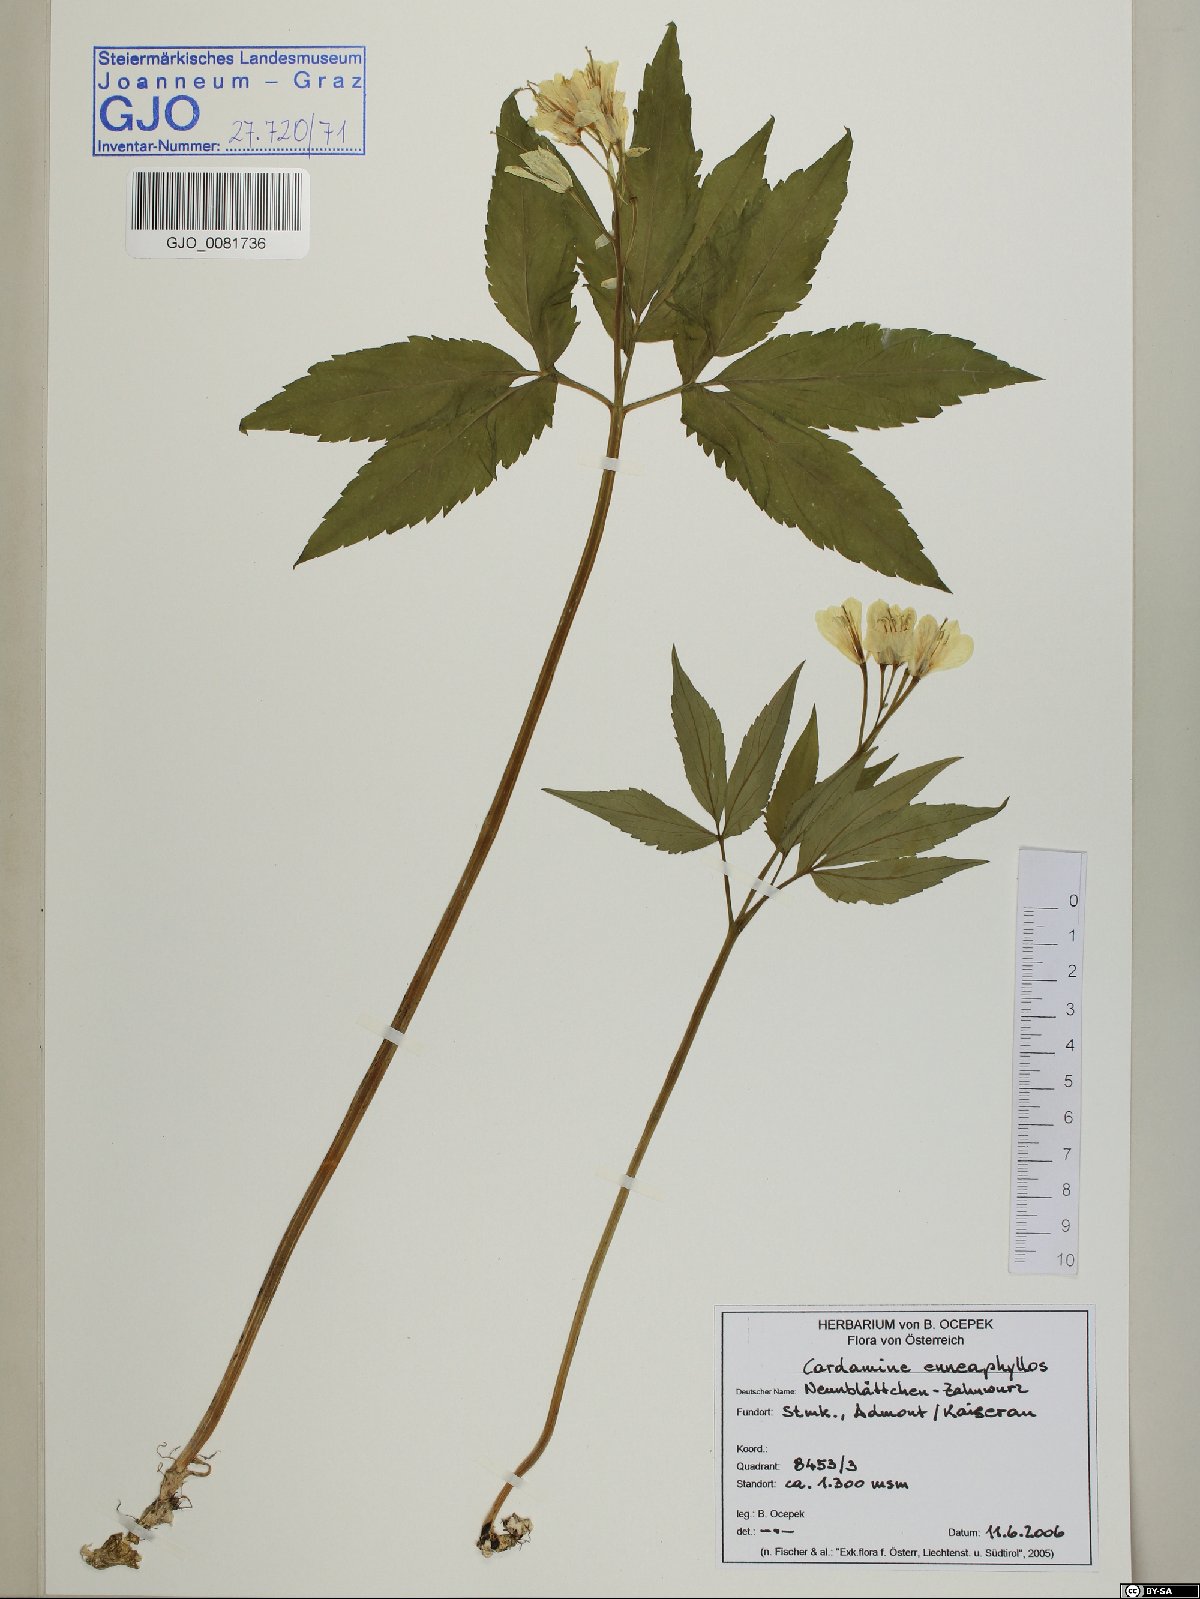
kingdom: Plantae
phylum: Tracheophyta
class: Magnoliopsida
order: Brassicales
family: Brassicaceae
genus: Cardamine
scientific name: Cardamine enneaphyllos
